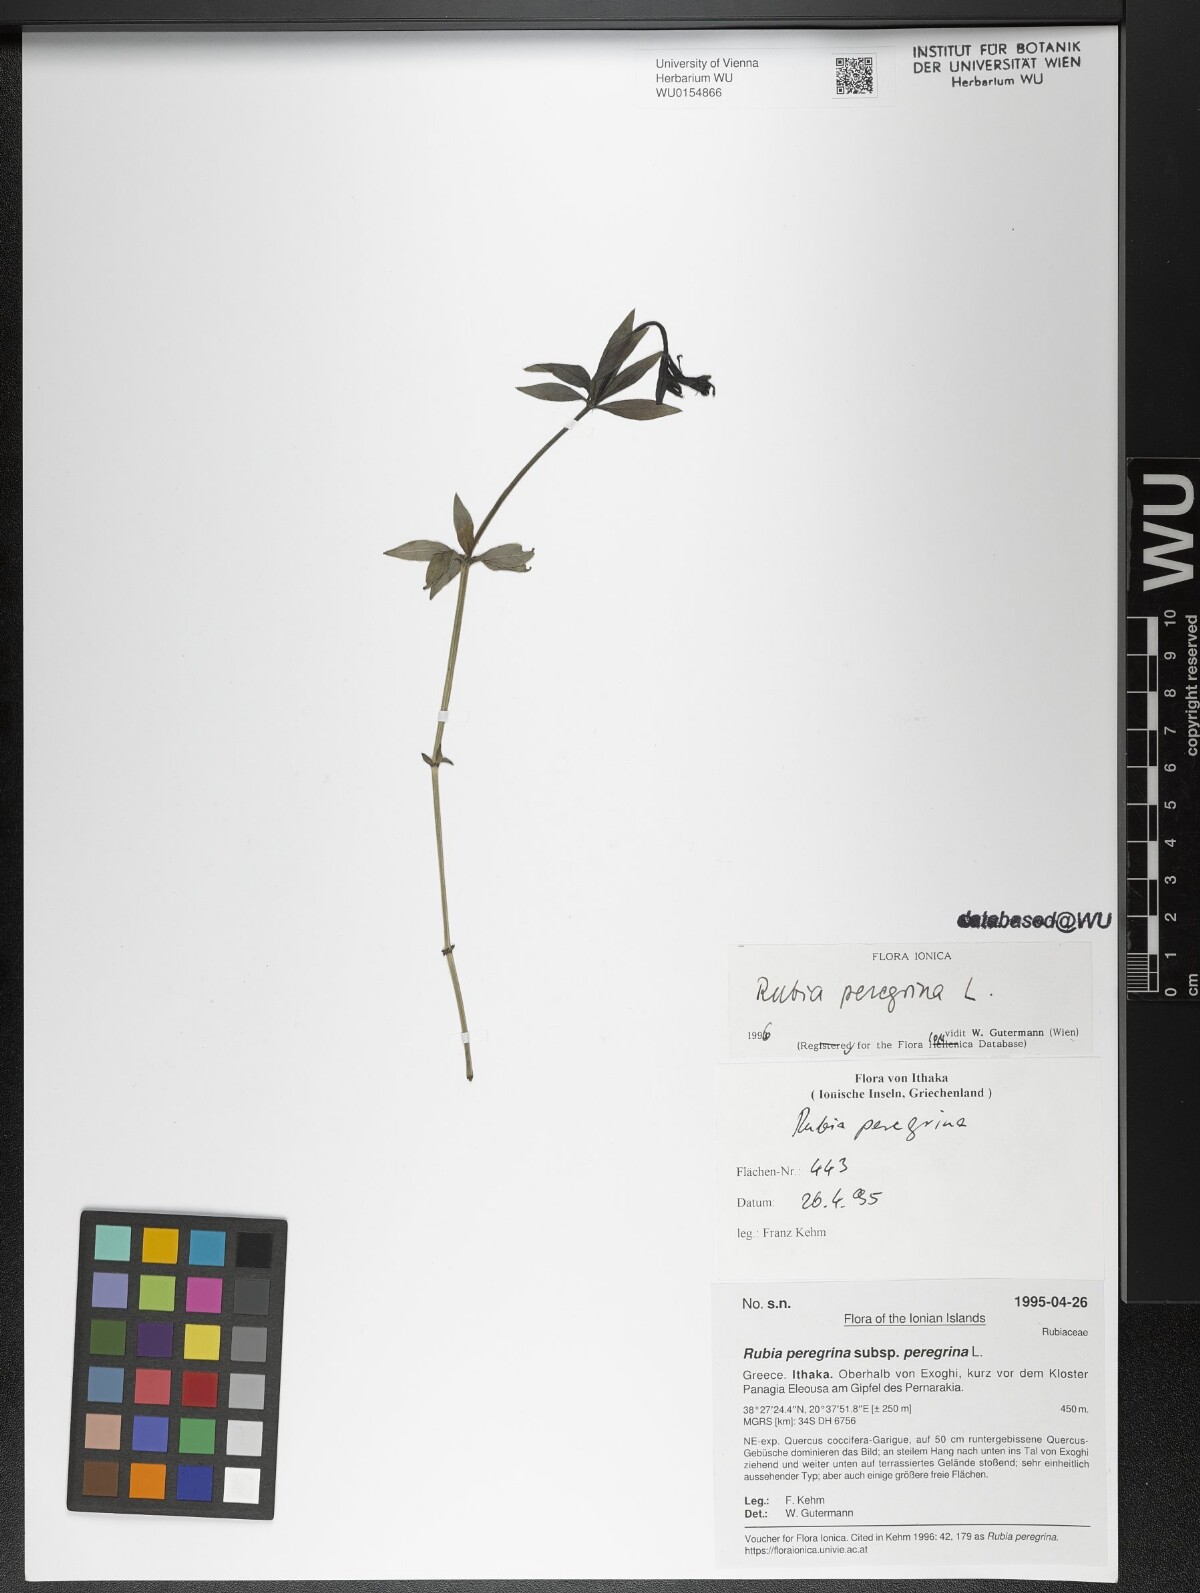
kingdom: Plantae
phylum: Tracheophyta
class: Magnoliopsida
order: Gentianales
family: Rubiaceae
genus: Rubia
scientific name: Rubia peregrina
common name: Wild madder
